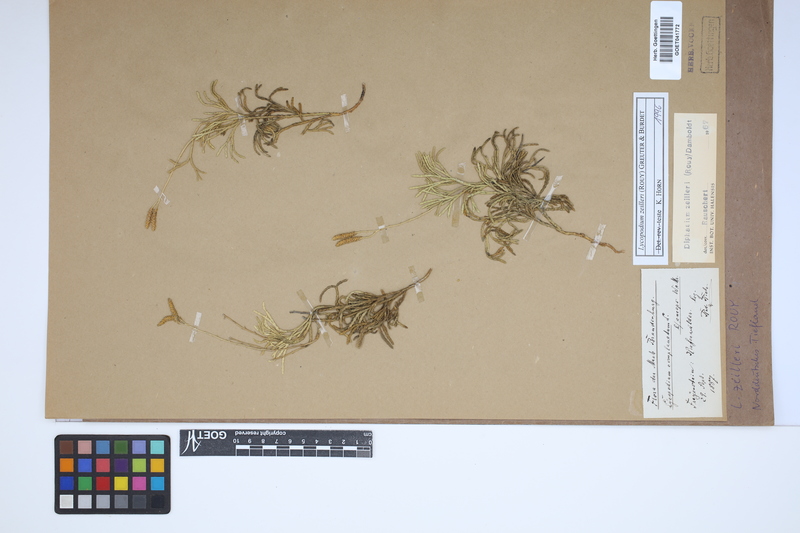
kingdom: Plantae
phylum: Tracheophyta
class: Lycopodiopsida
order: Lycopodiales
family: Lycopodiaceae
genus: Diphasiastrum
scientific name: Diphasiastrum zeilleri
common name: Zeiller's clubmoss
